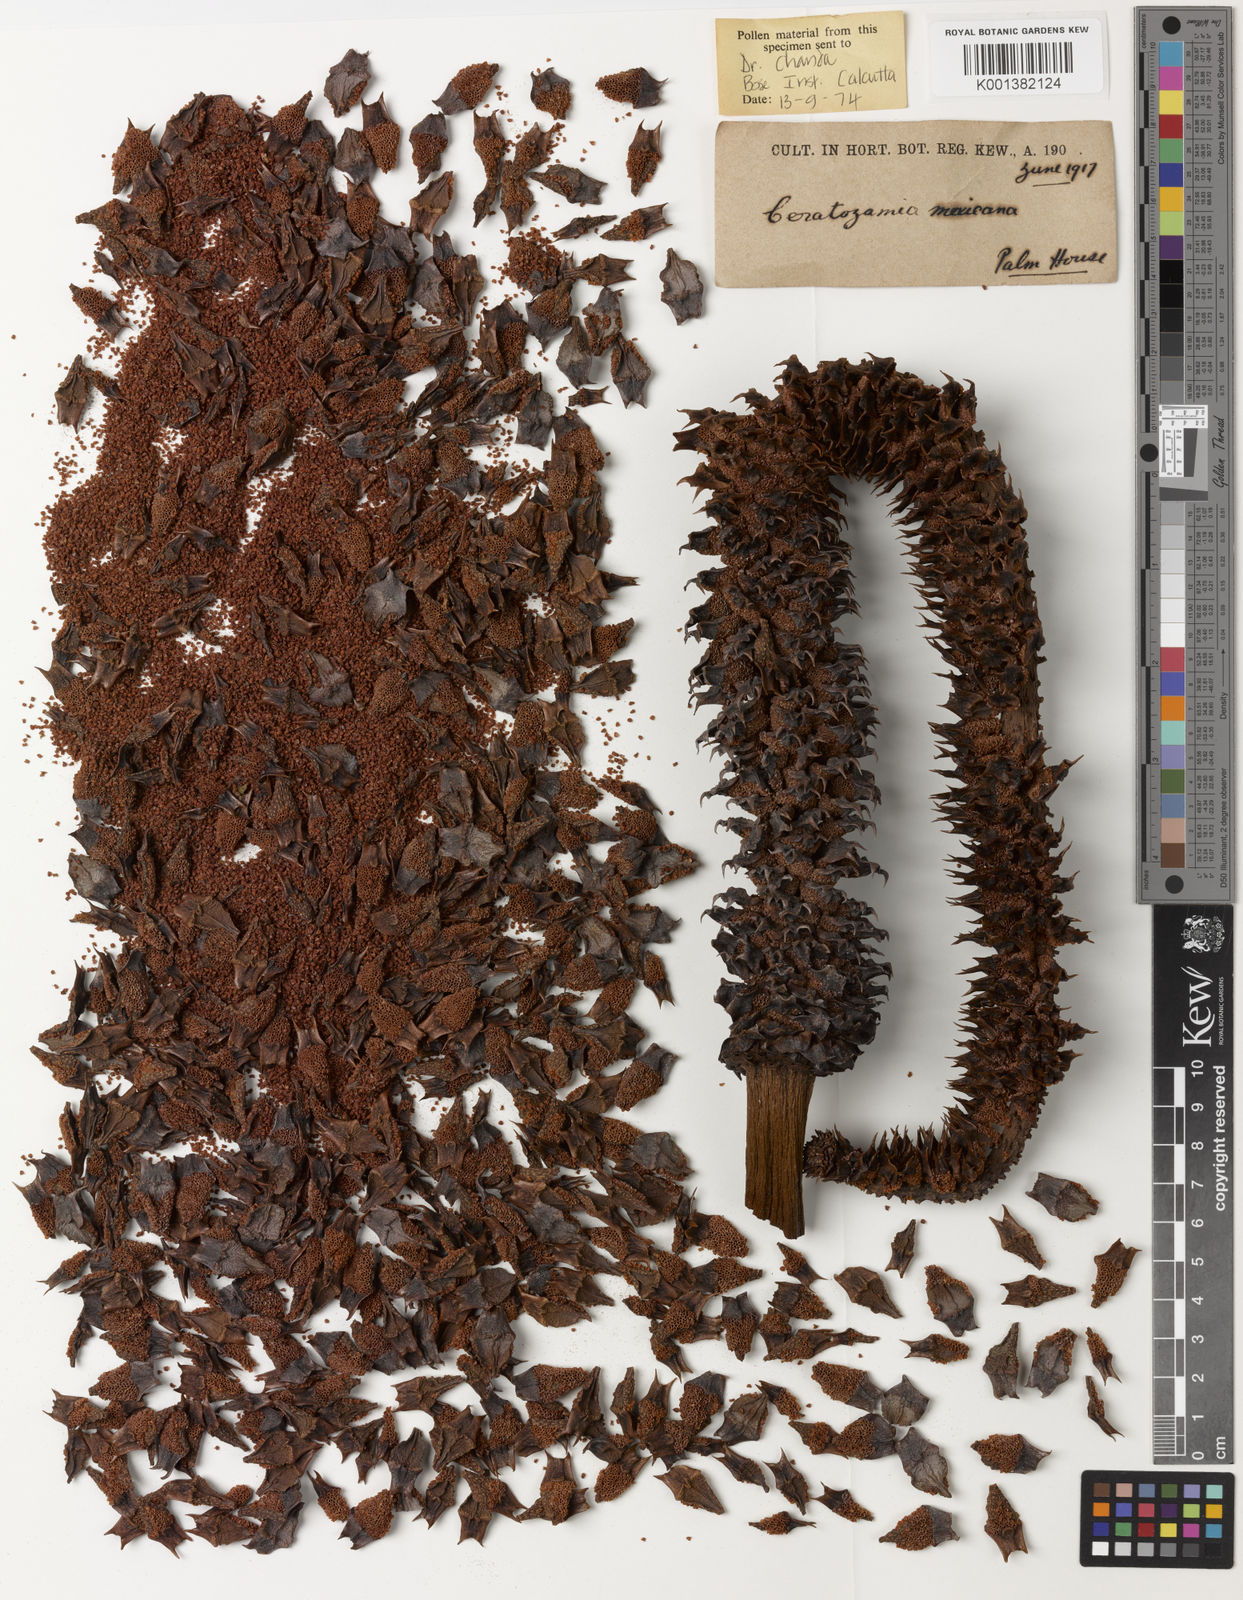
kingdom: Plantae
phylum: Tracheophyta
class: Cycadopsida
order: Cycadales
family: Zamiaceae
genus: Ceratozamia
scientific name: Ceratozamia mexicana
